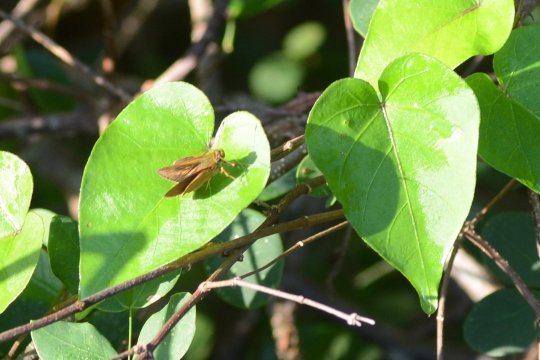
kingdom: Animalia
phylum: Arthropoda
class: Insecta
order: Lepidoptera
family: Hesperiidae
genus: Corticea
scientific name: Corticea corticea
